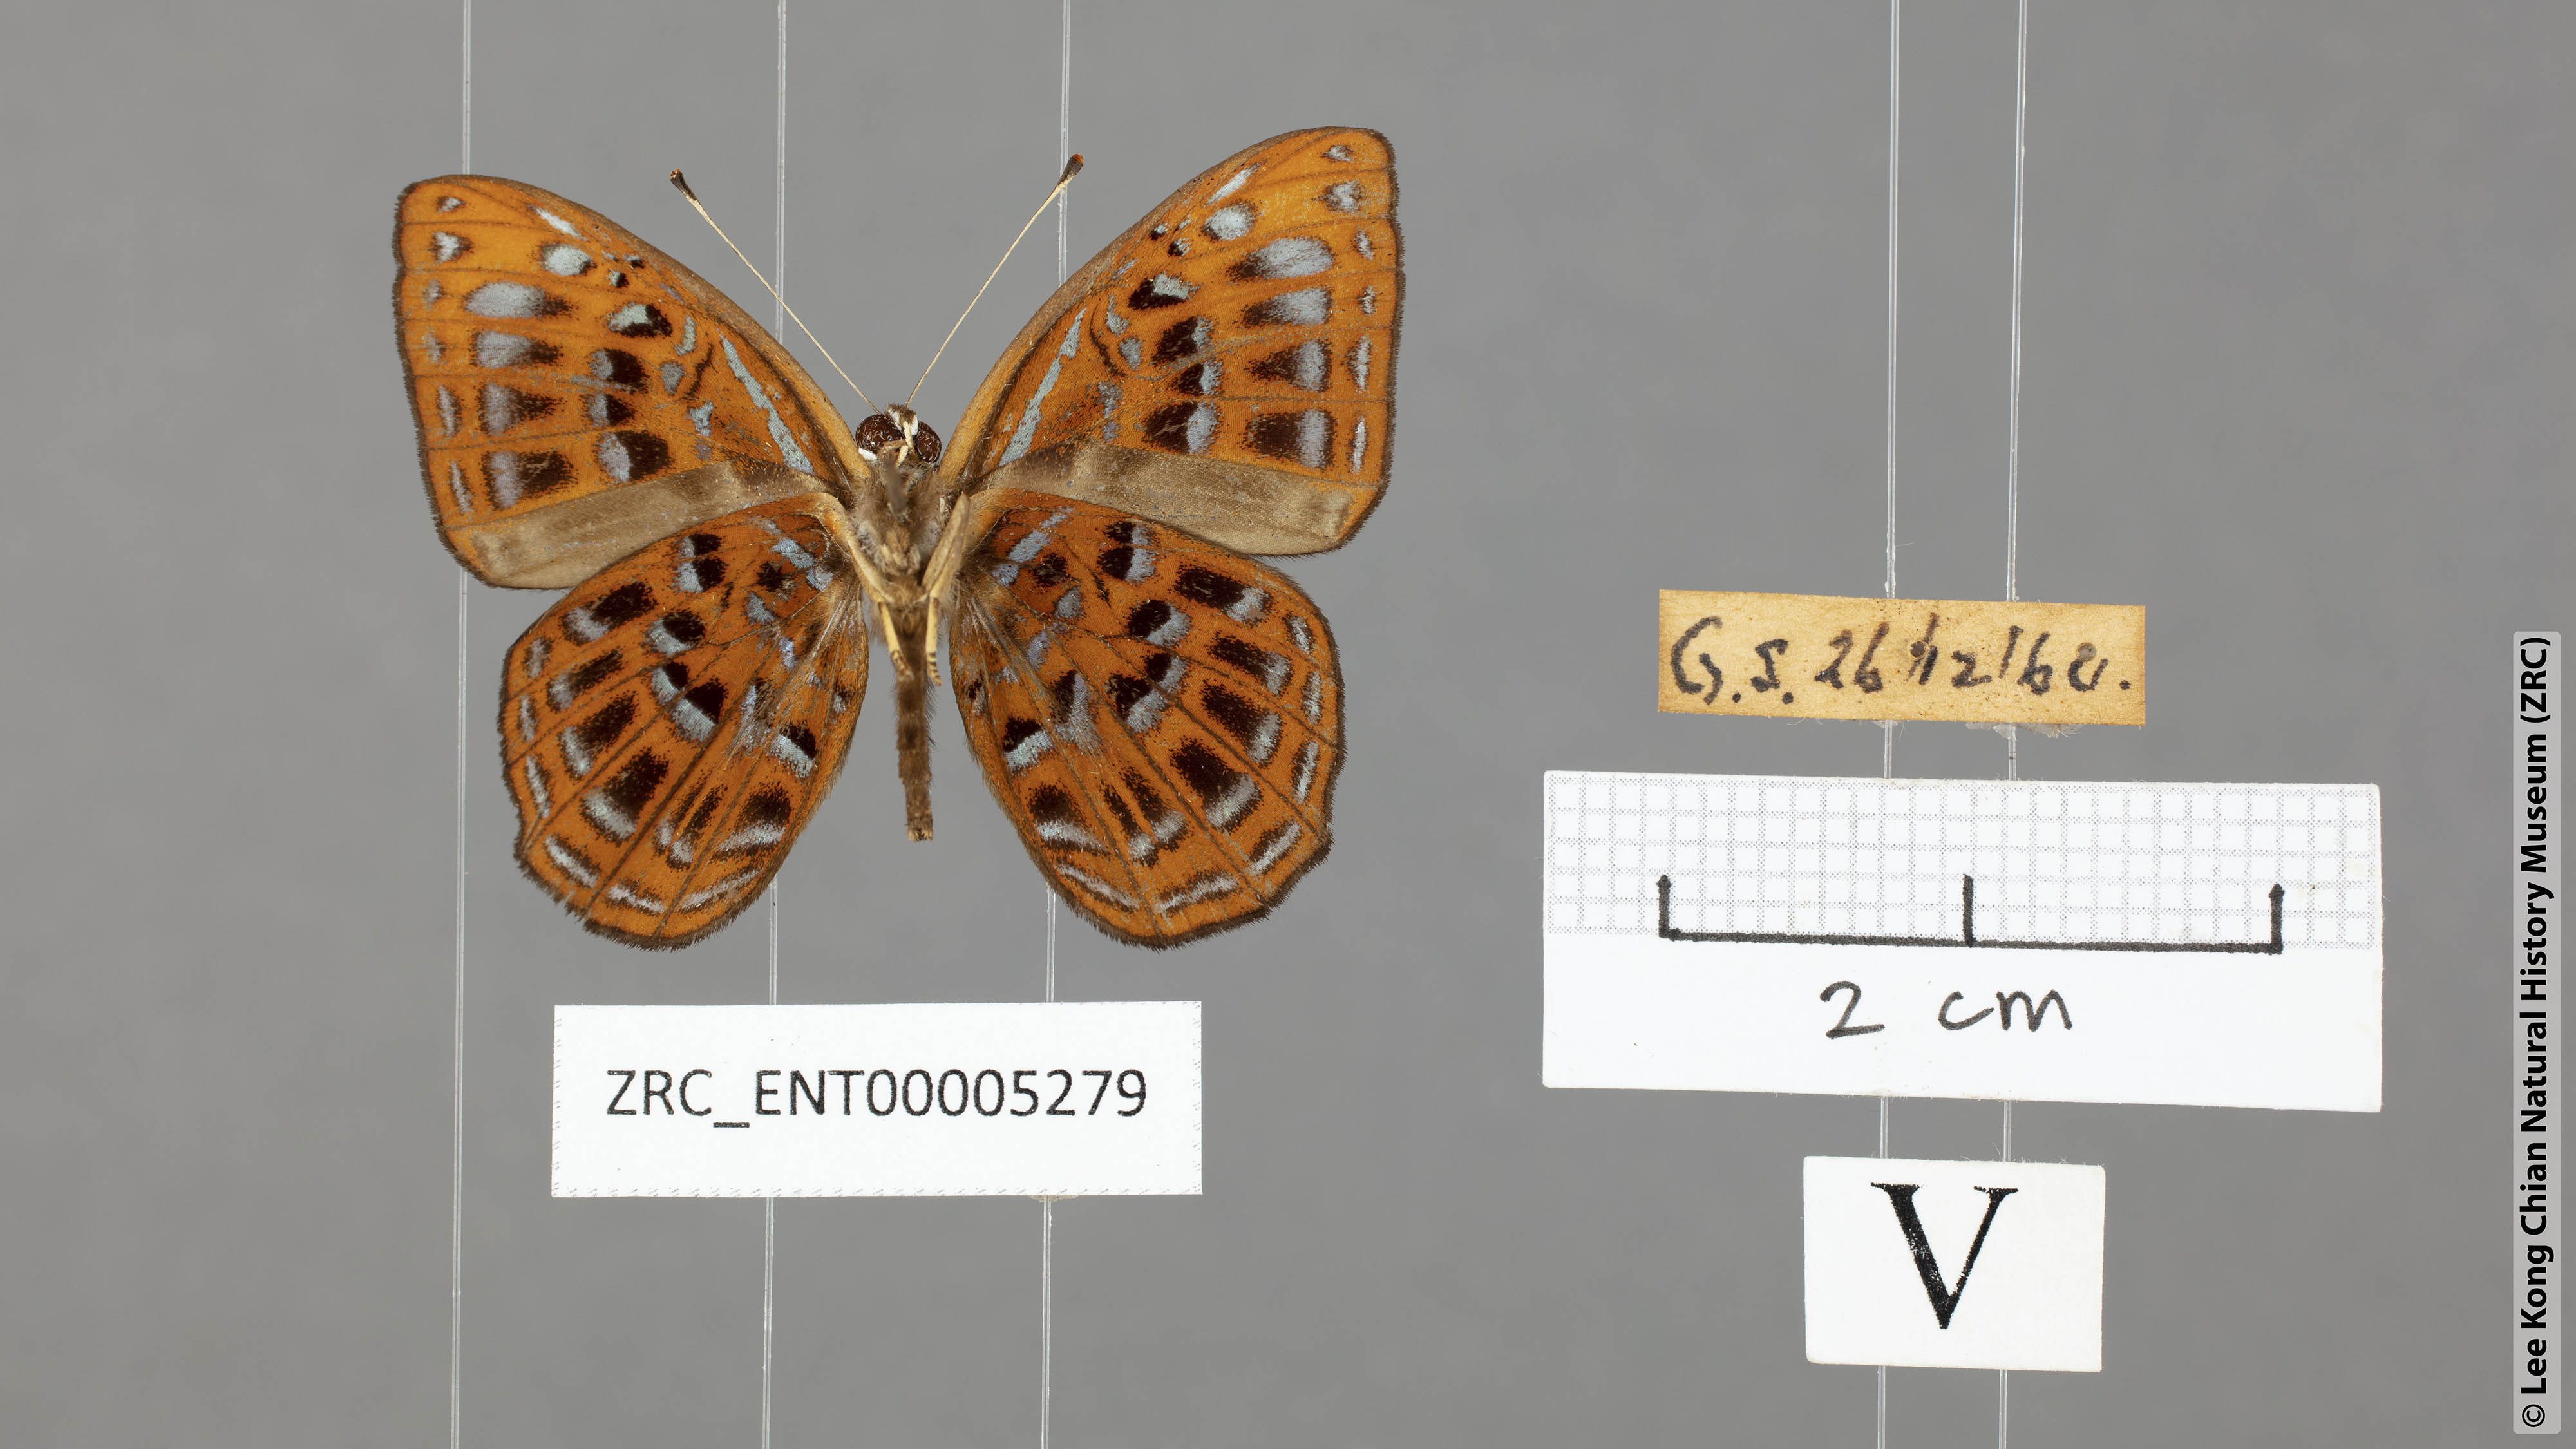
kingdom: Animalia
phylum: Arthropoda
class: Insecta
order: Lepidoptera
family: Erebidae
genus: Dysschema
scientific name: Dysschema
